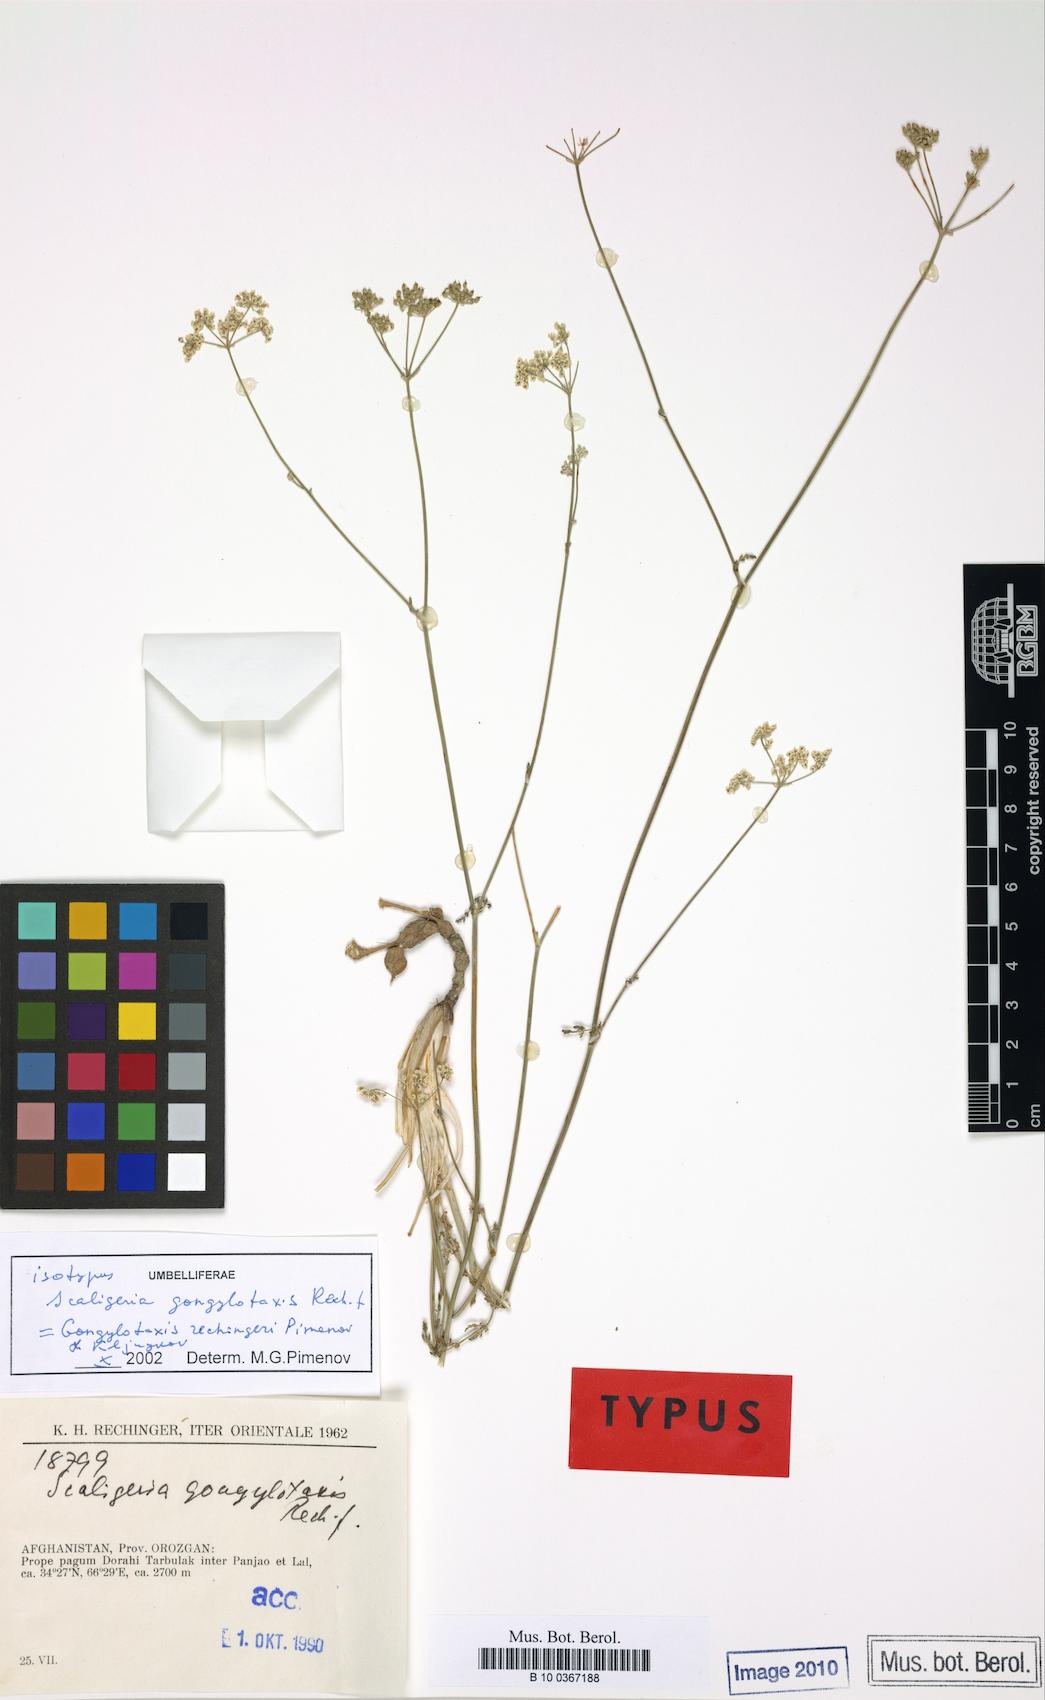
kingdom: Plantae
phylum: Tracheophyta
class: Magnoliopsida
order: Apiales
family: Apiaceae
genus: Gongylotaxis
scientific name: Gongylotaxis rechingeri
